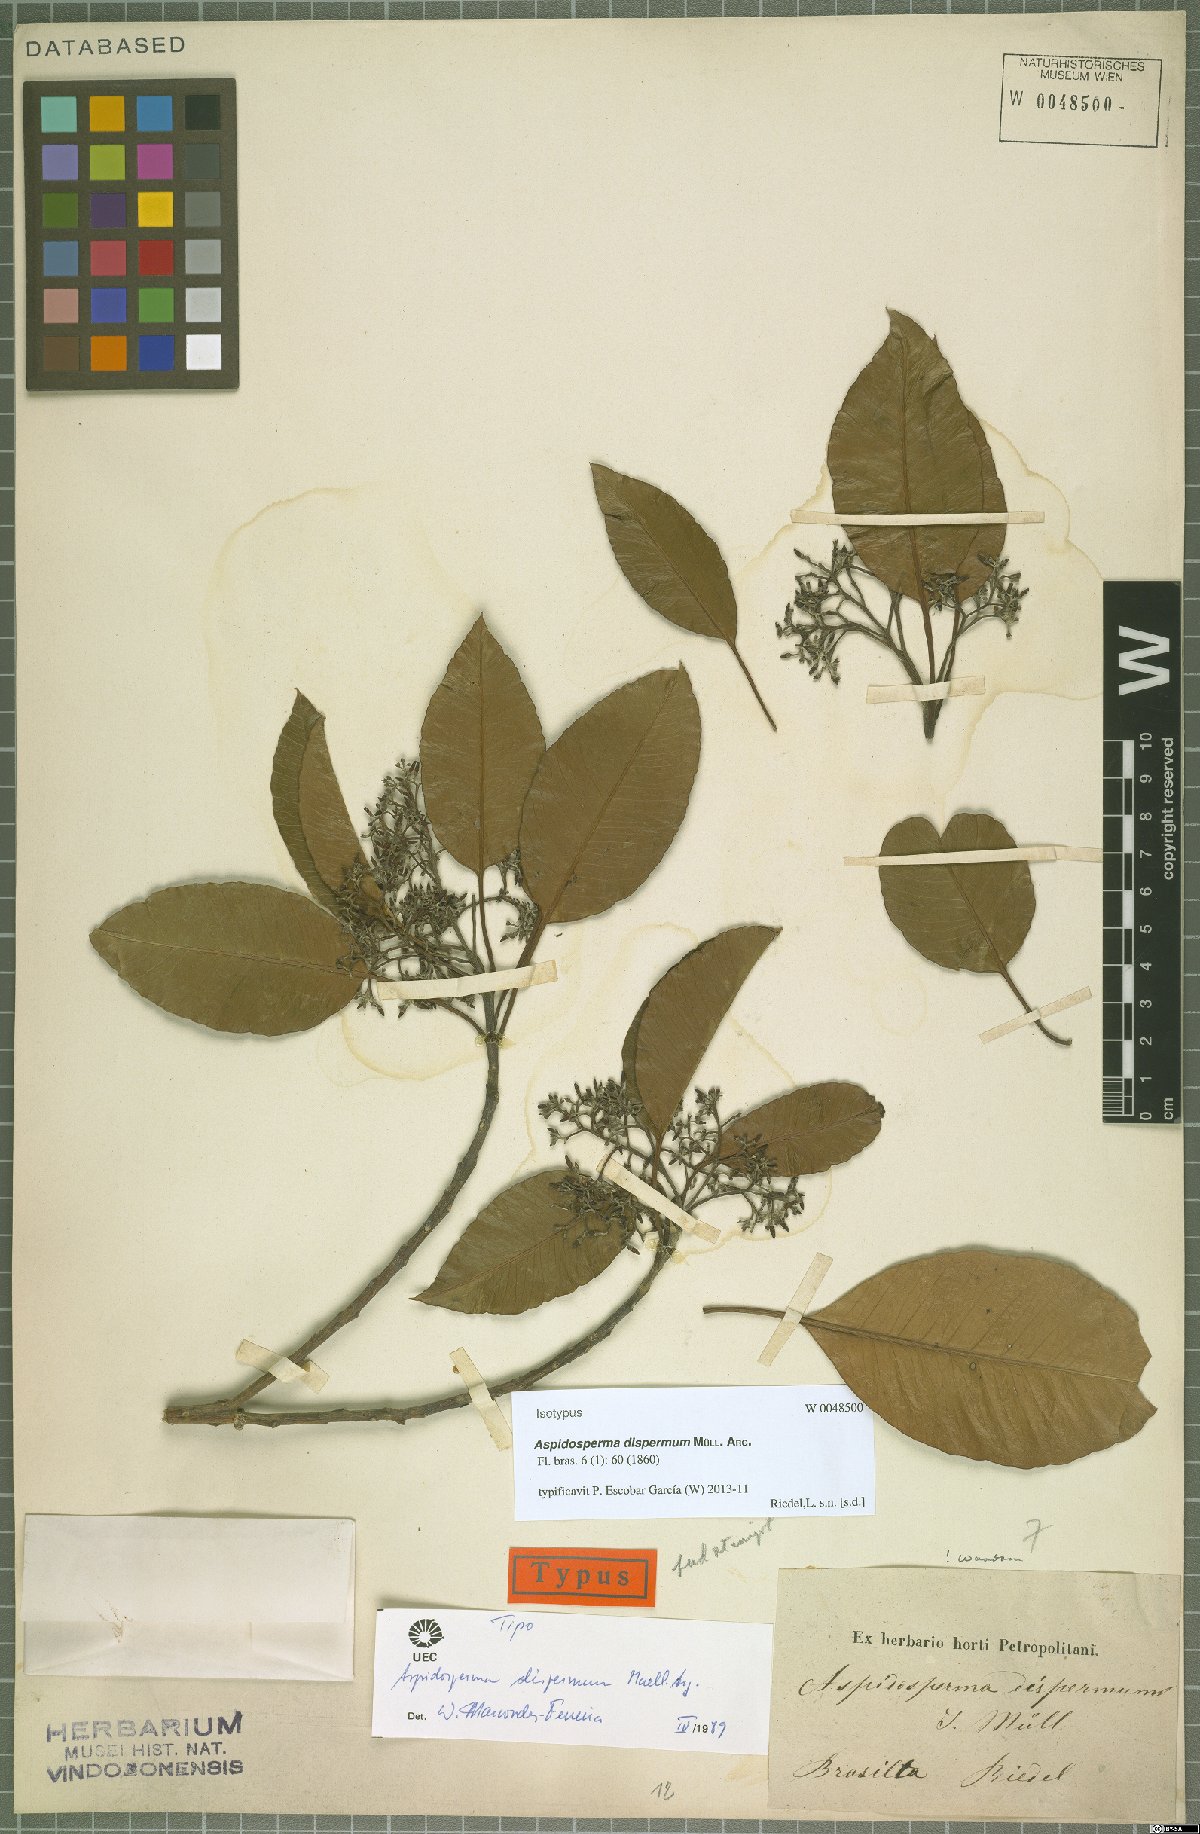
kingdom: Plantae
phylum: Tracheophyta
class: Magnoliopsida
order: Gentianales
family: Apocynaceae
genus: Aspidosperma
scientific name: Aspidosperma dispermum
